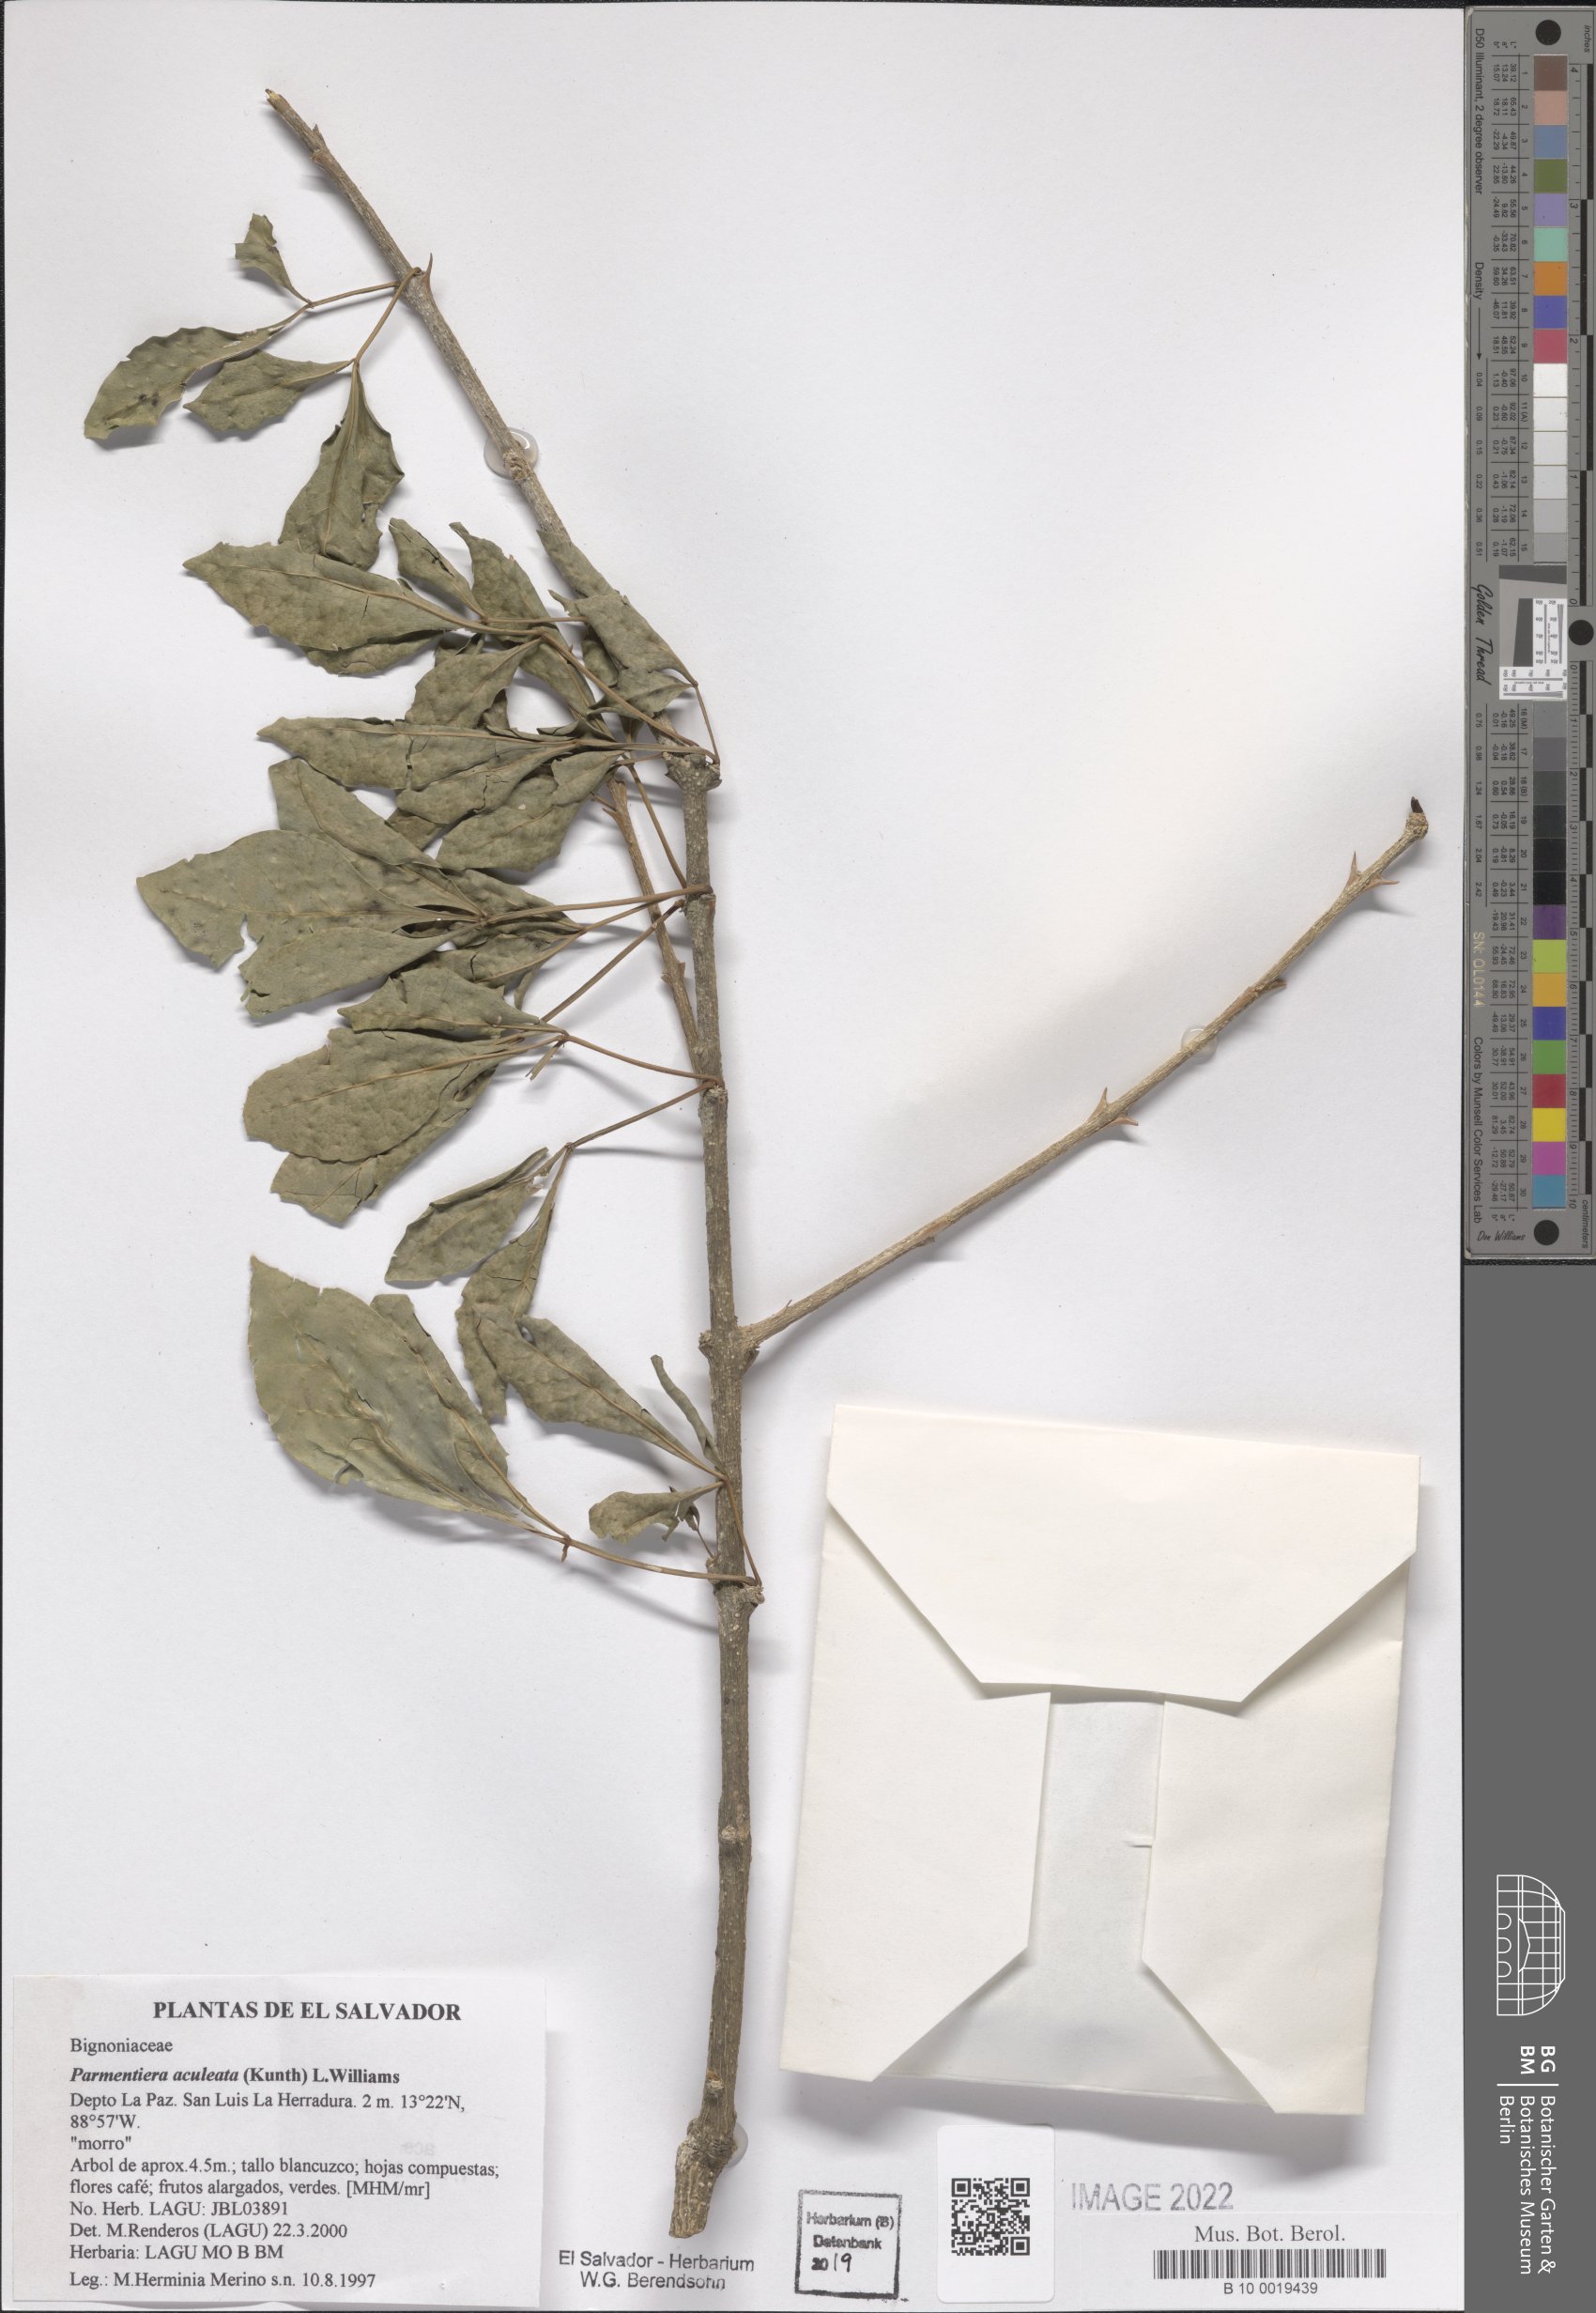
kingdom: Plantae
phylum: Tracheophyta
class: Magnoliopsida
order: Lamiales
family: Bignoniaceae
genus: Parmentiera
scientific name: Parmentiera aculeata
